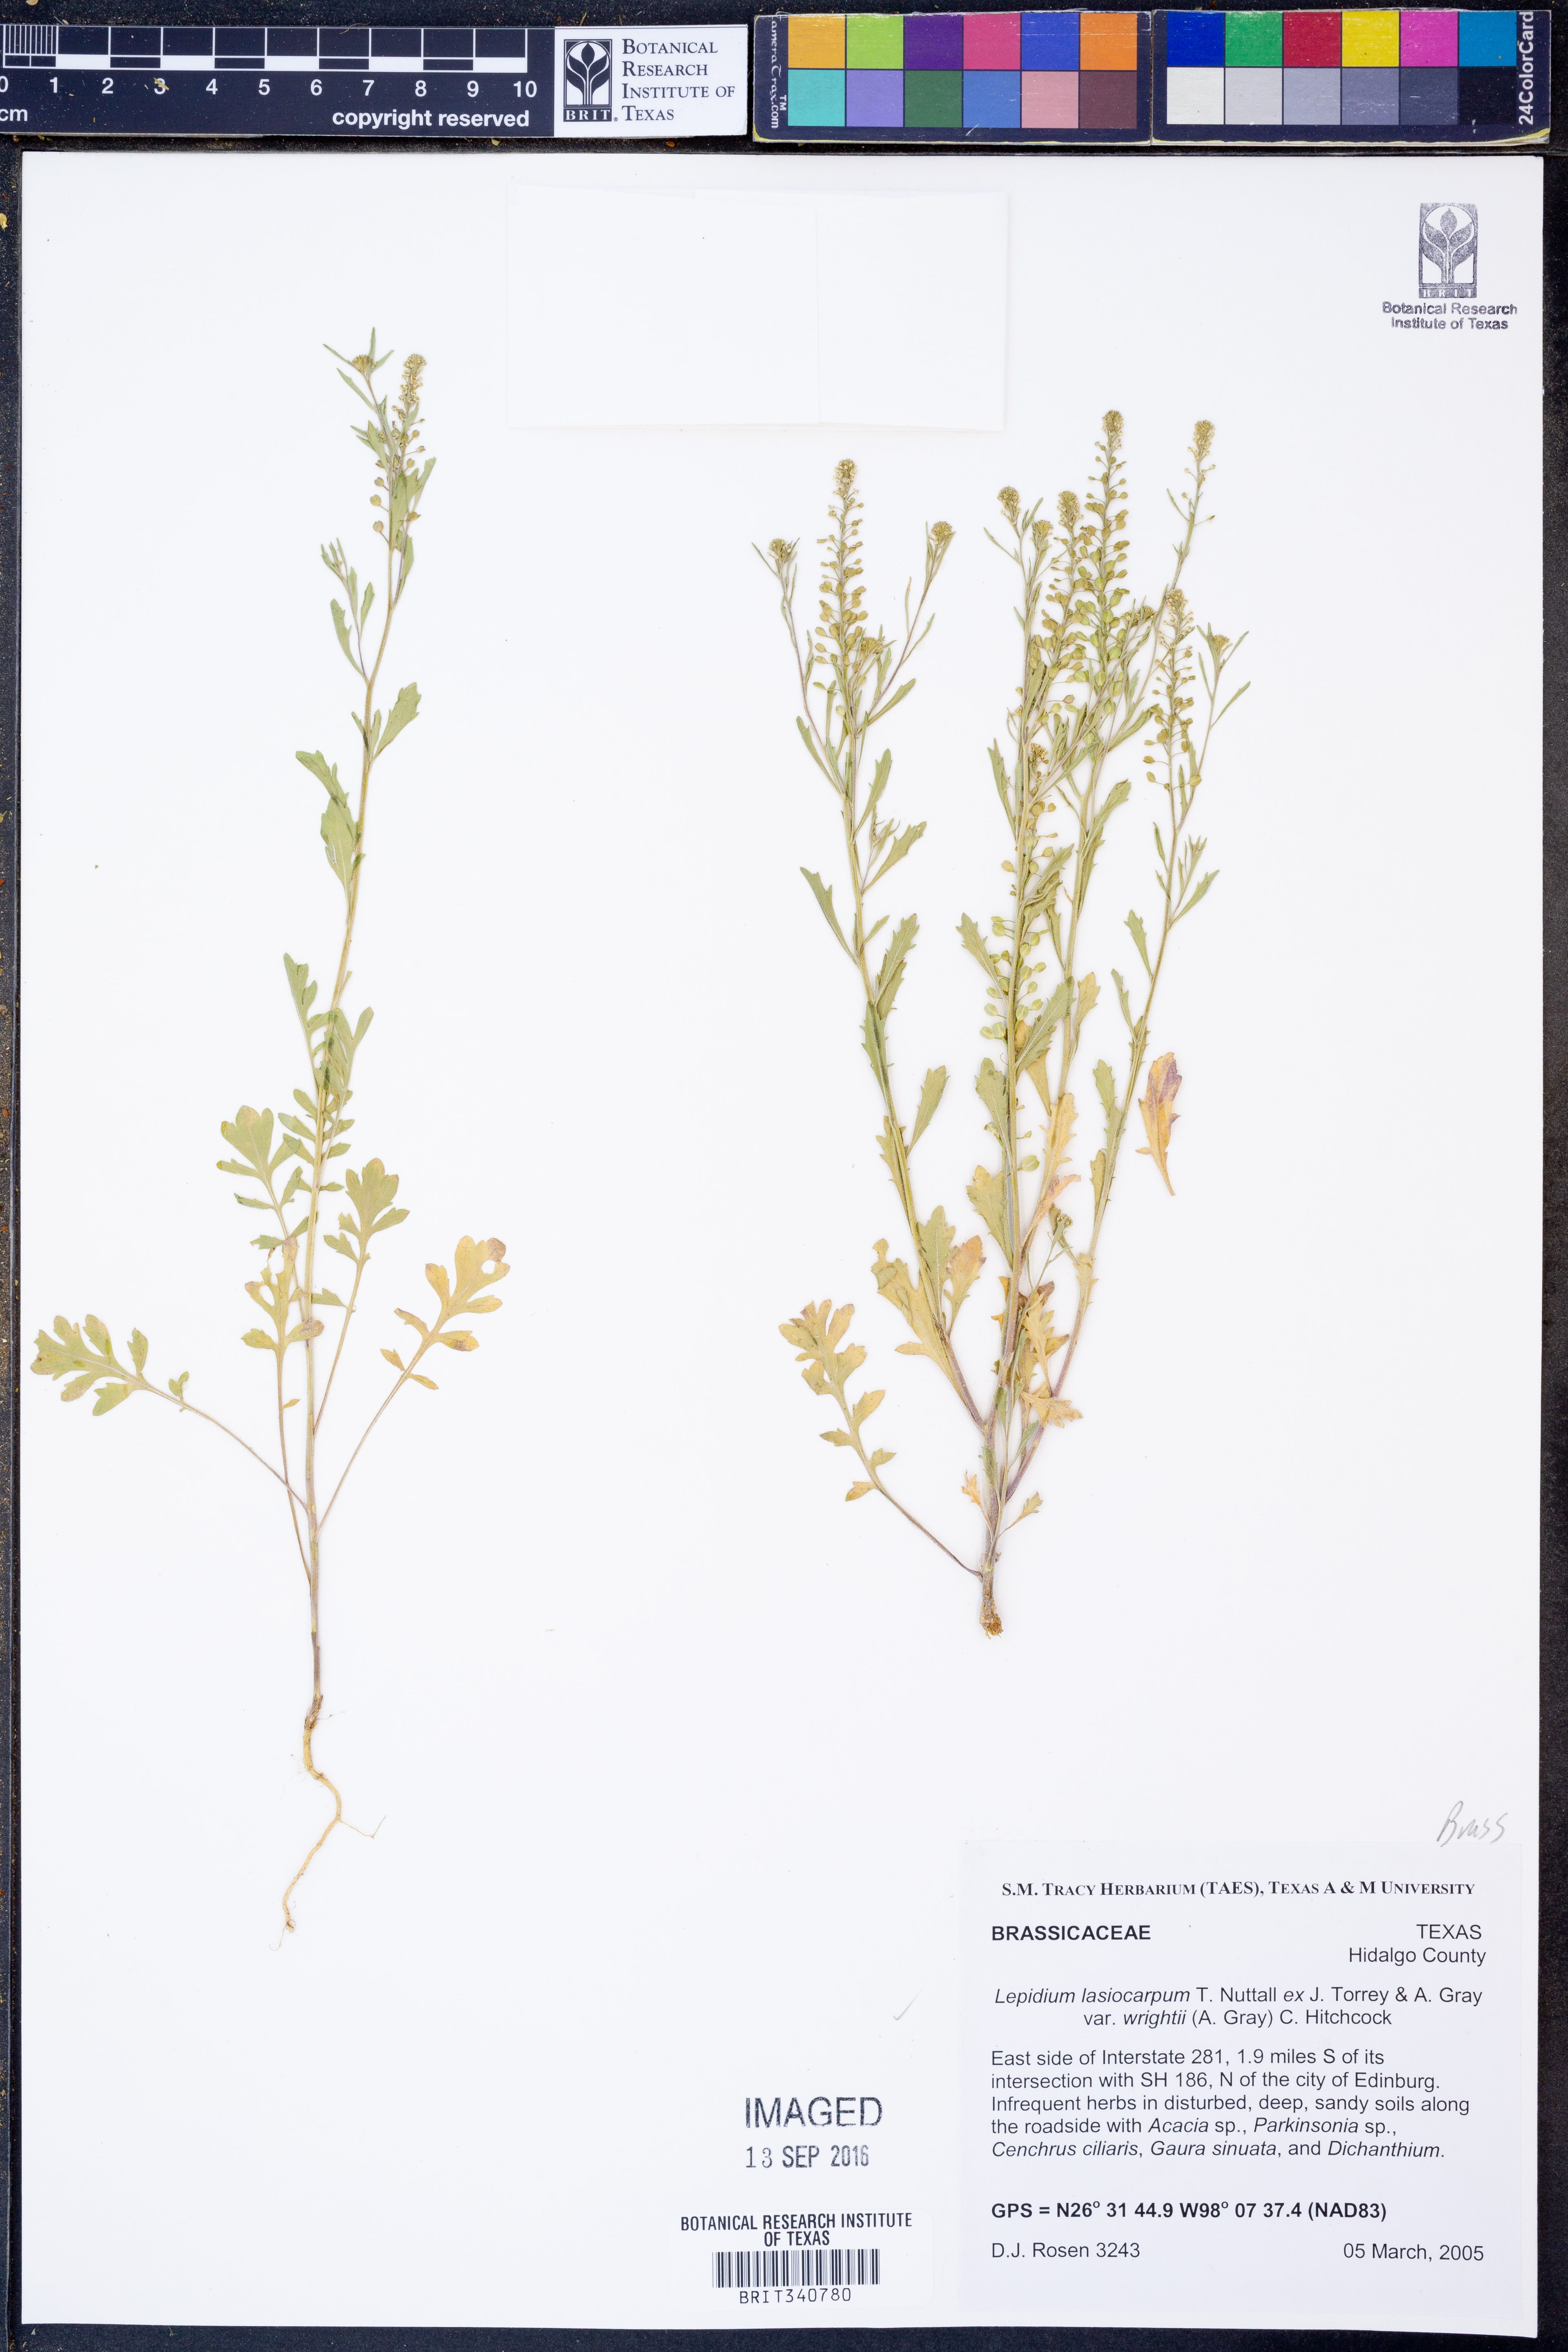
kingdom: Plantae
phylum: Tracheophyta
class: Magnoliopsida
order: Brassicales
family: Brassicaceae
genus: Lepidium
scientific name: Lepidium lasiocarpum
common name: Hairy-pod pepperwort
